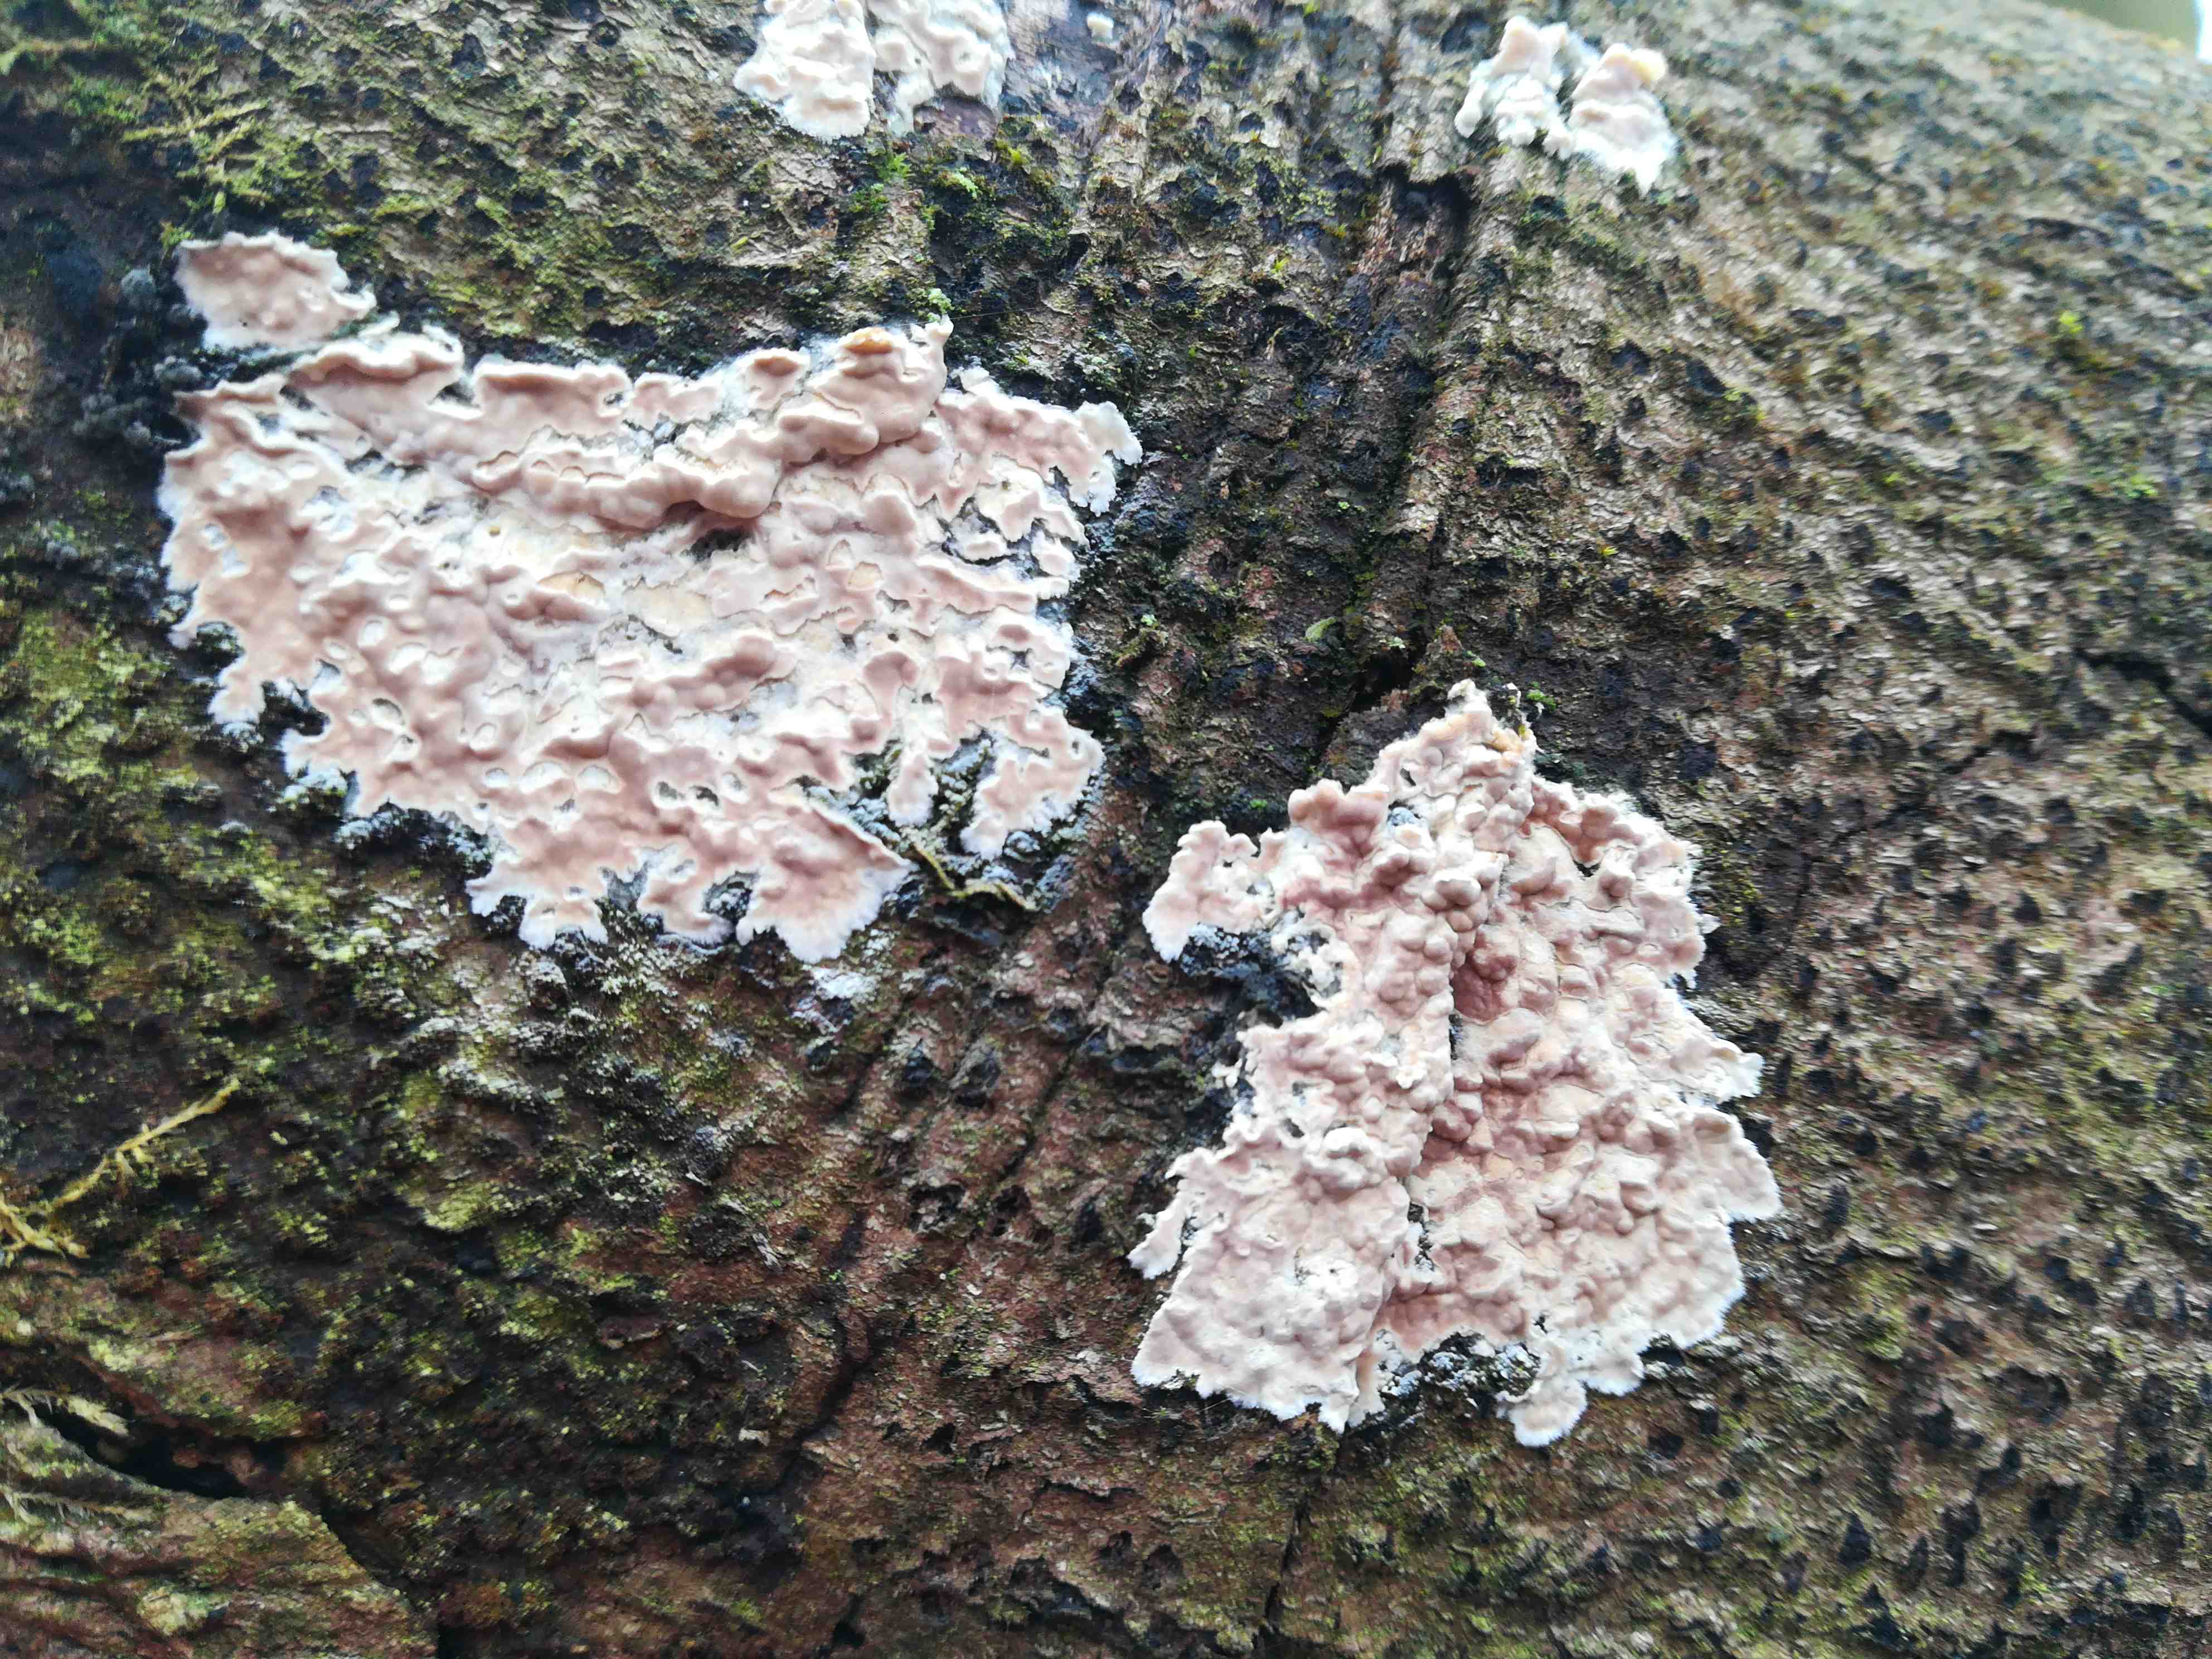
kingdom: Fungi
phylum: Basidiomycota
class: Agaricomycetes
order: Agaricales
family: Physalacriaceae
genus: Cylindrobasidium
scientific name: Cylindrobasidium evolvens
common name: sprækkehinde
